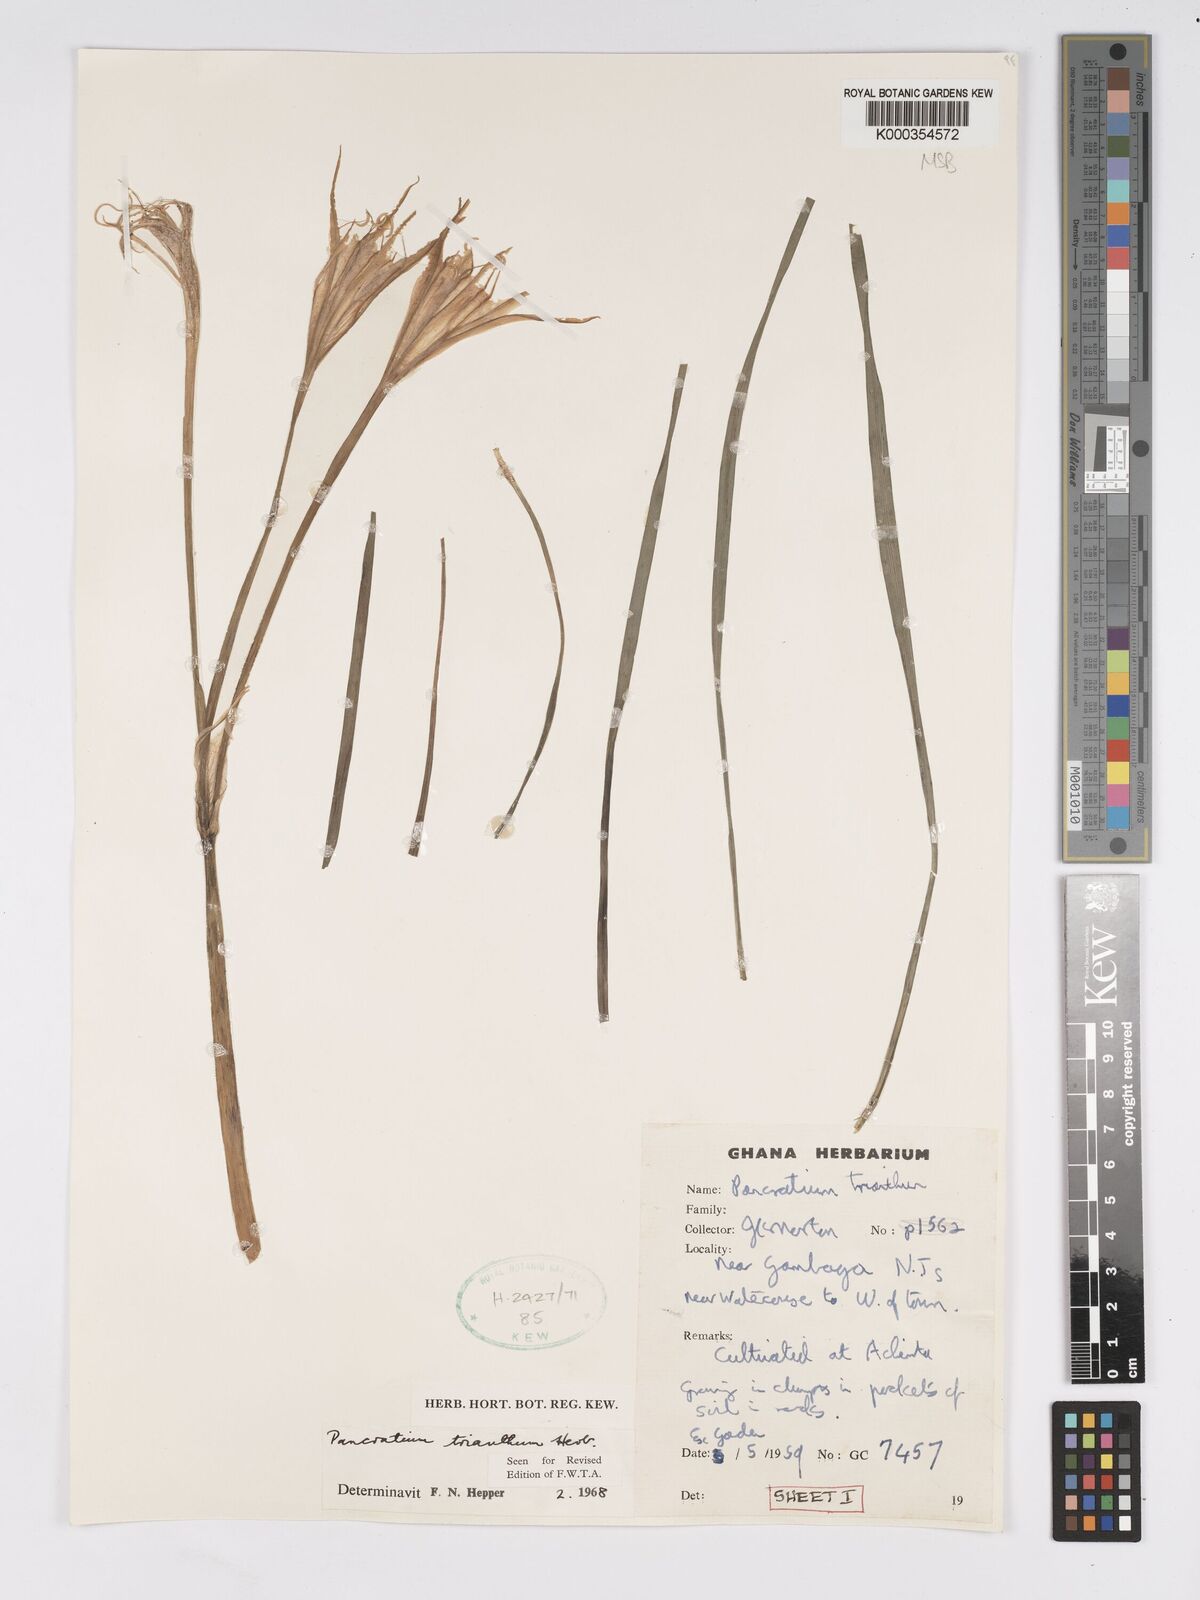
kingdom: Plantae
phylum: Tracheophyta
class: Liliopsida
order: Asparagales
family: Amaryllidaceae
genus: Pancratium
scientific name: Pancratium trianthum
